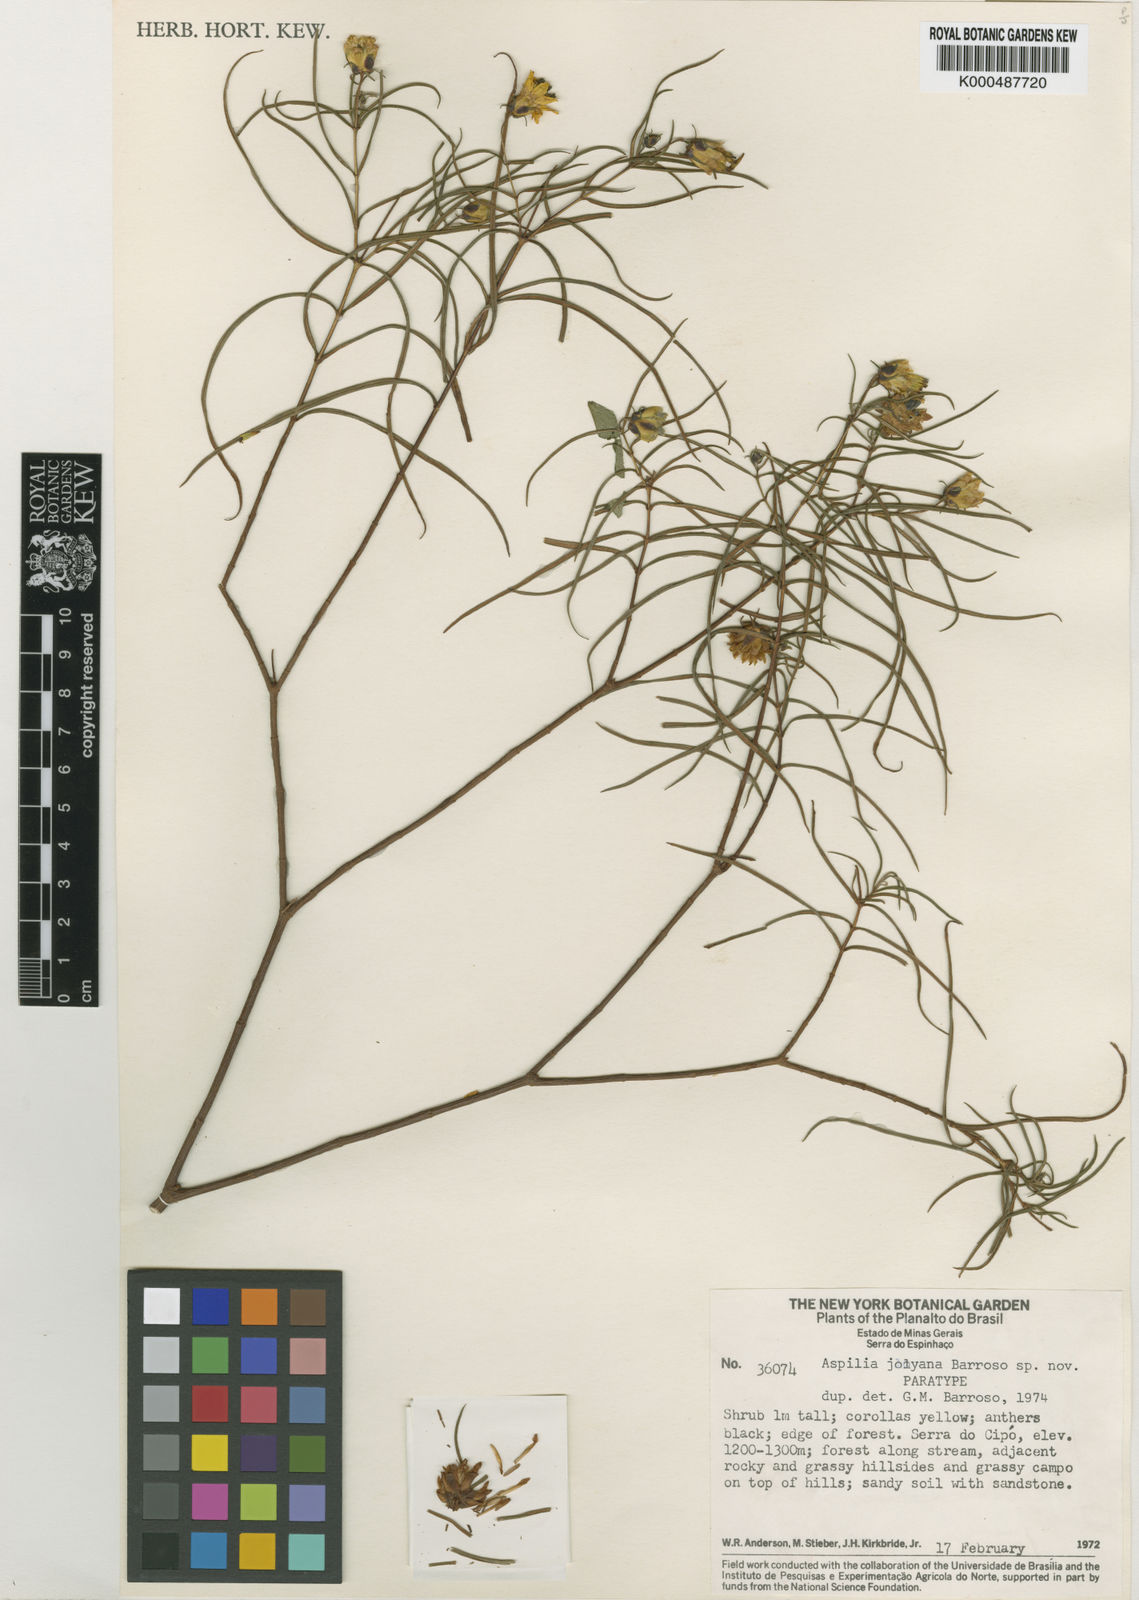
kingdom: Plantae
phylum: Tracheophyta
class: Magnoliopsida
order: Asterales
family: Asteraceae
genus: Aspilia
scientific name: Aspilia jolyana
